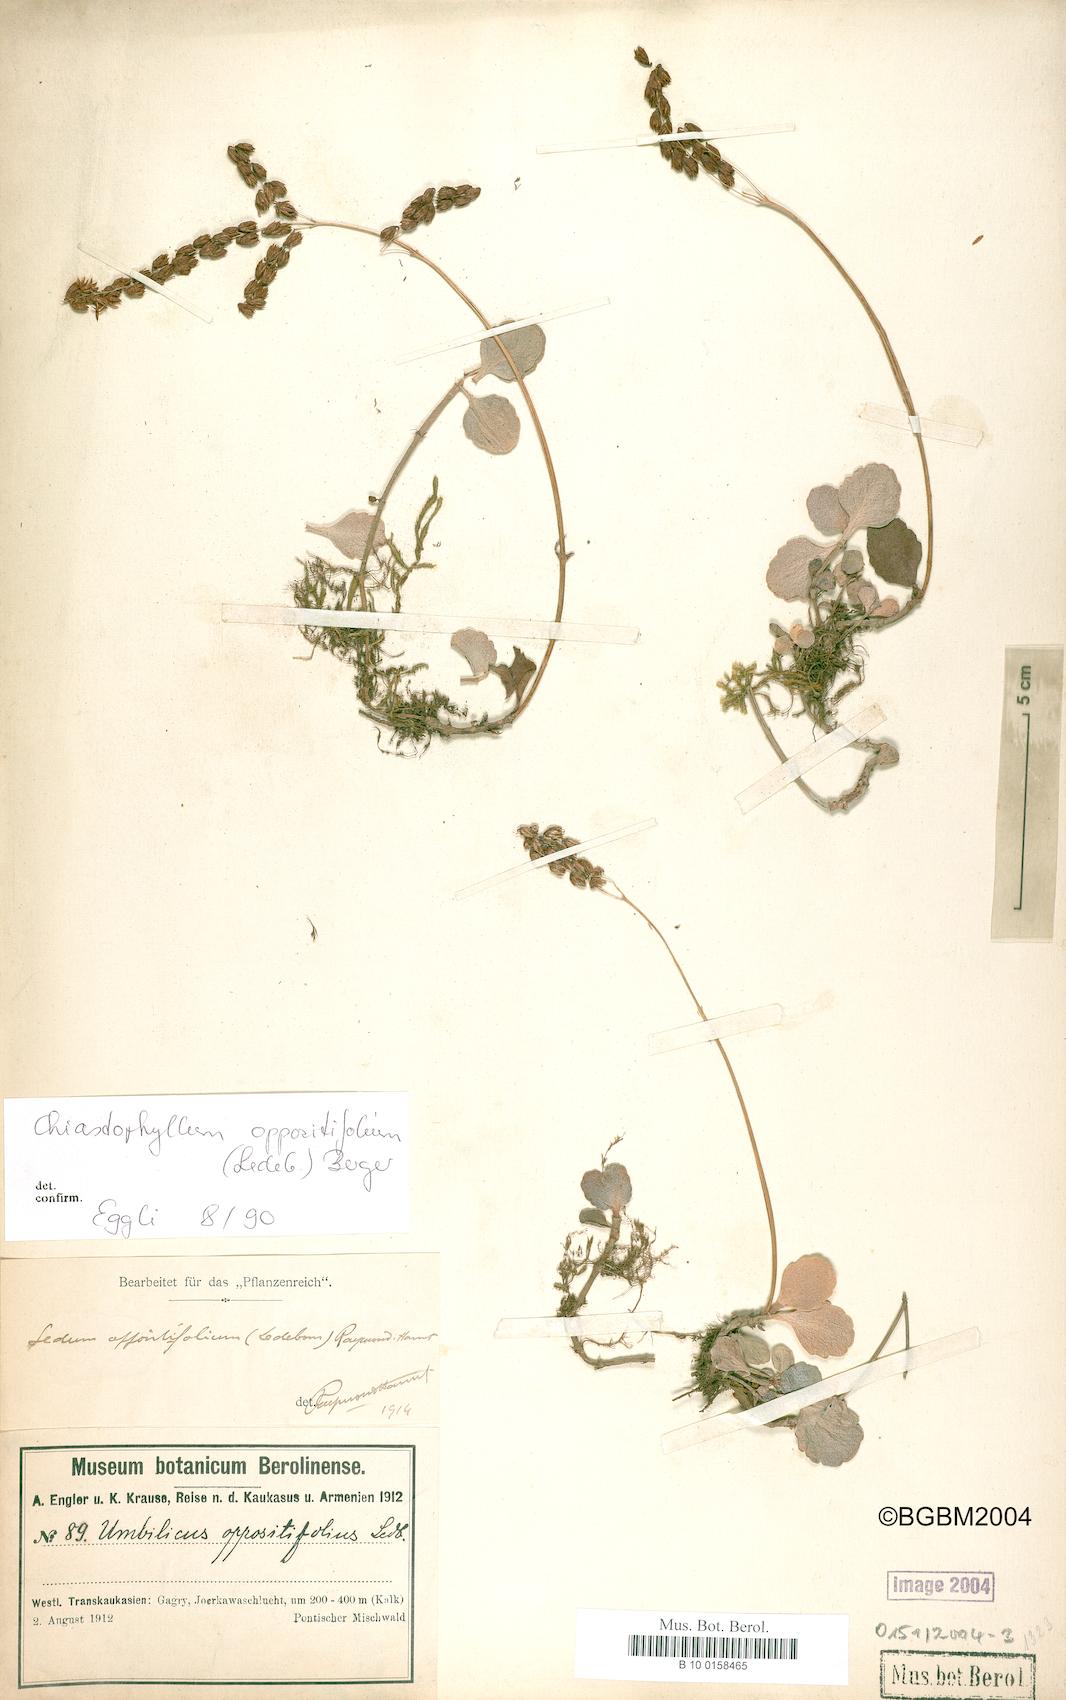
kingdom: Plantae
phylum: Tracheophyta
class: Magnoliopsida
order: Saxifragales
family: Crassulaceae
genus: Umbilicus
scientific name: Umbilicus oppositifolius
